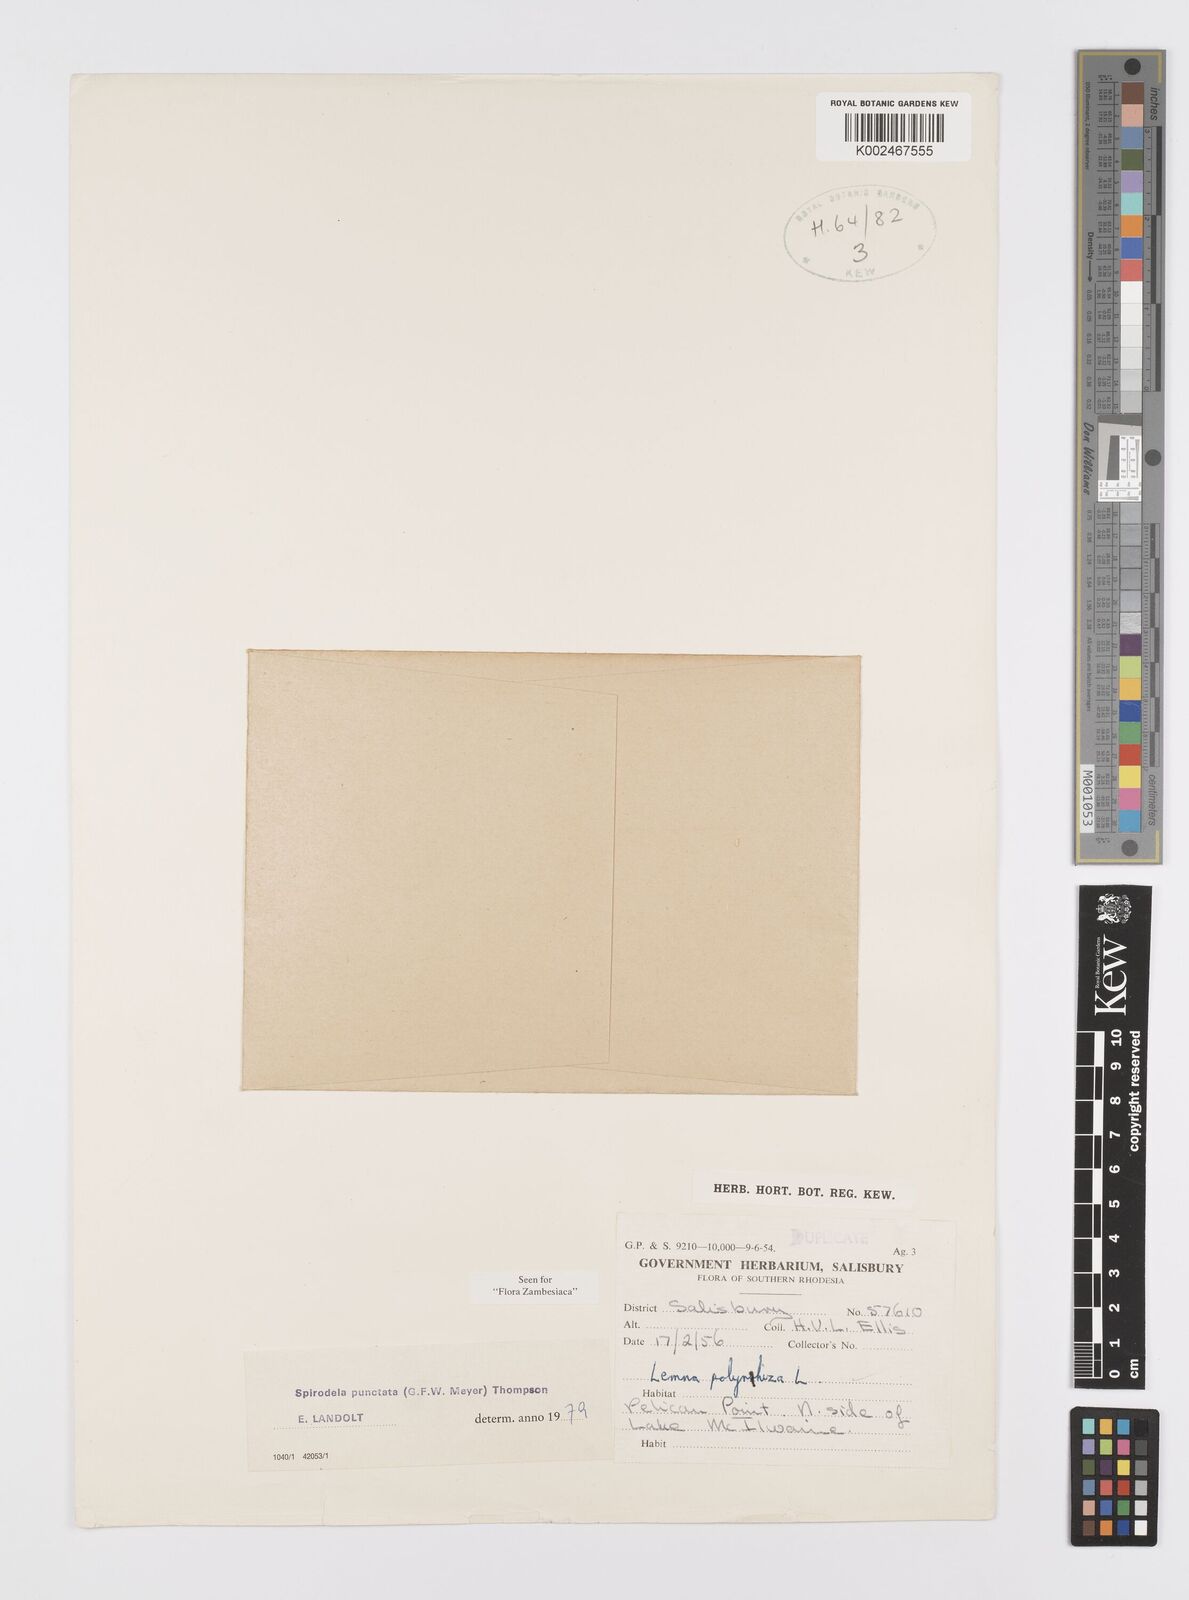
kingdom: Plantae
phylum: Tracheophyta
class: Liliopsida
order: Alismatales
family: Araceae
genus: Spirodela
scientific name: Spirodela punctata
